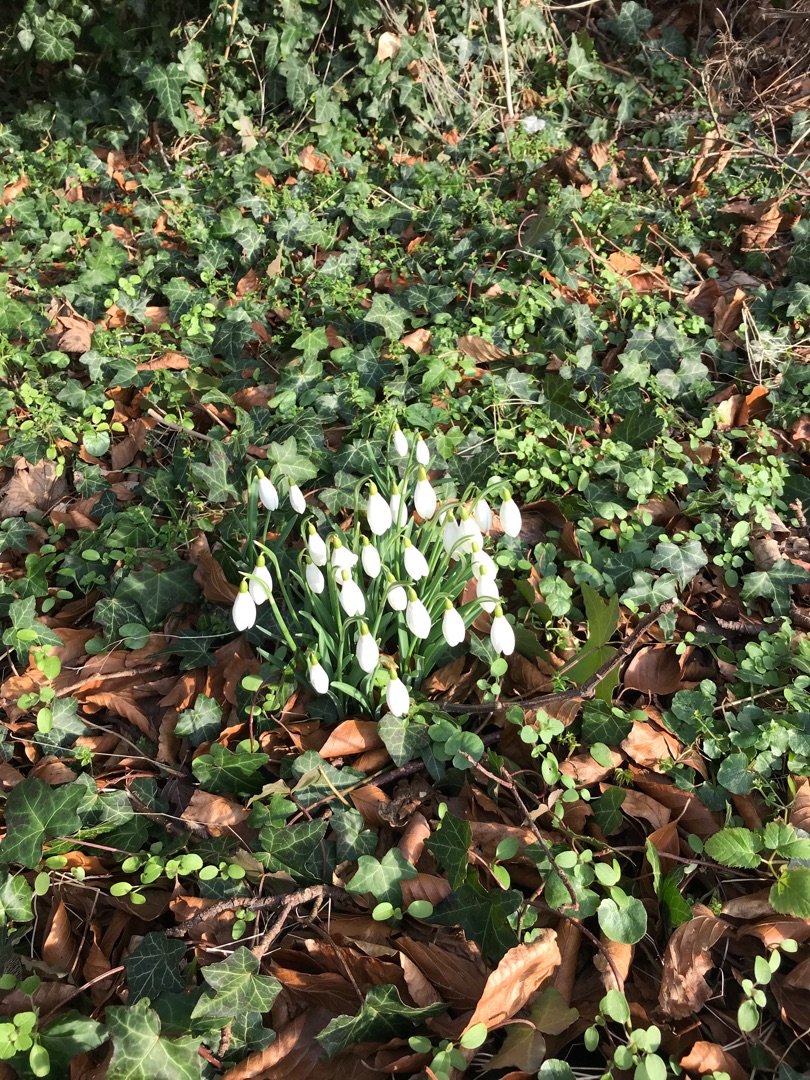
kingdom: Plantae
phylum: Tracheophyta
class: Liliopsida
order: Asparagales
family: Amaryllidaceae
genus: Galanthus
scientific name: Galanthus nivalis
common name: Vintergæk
